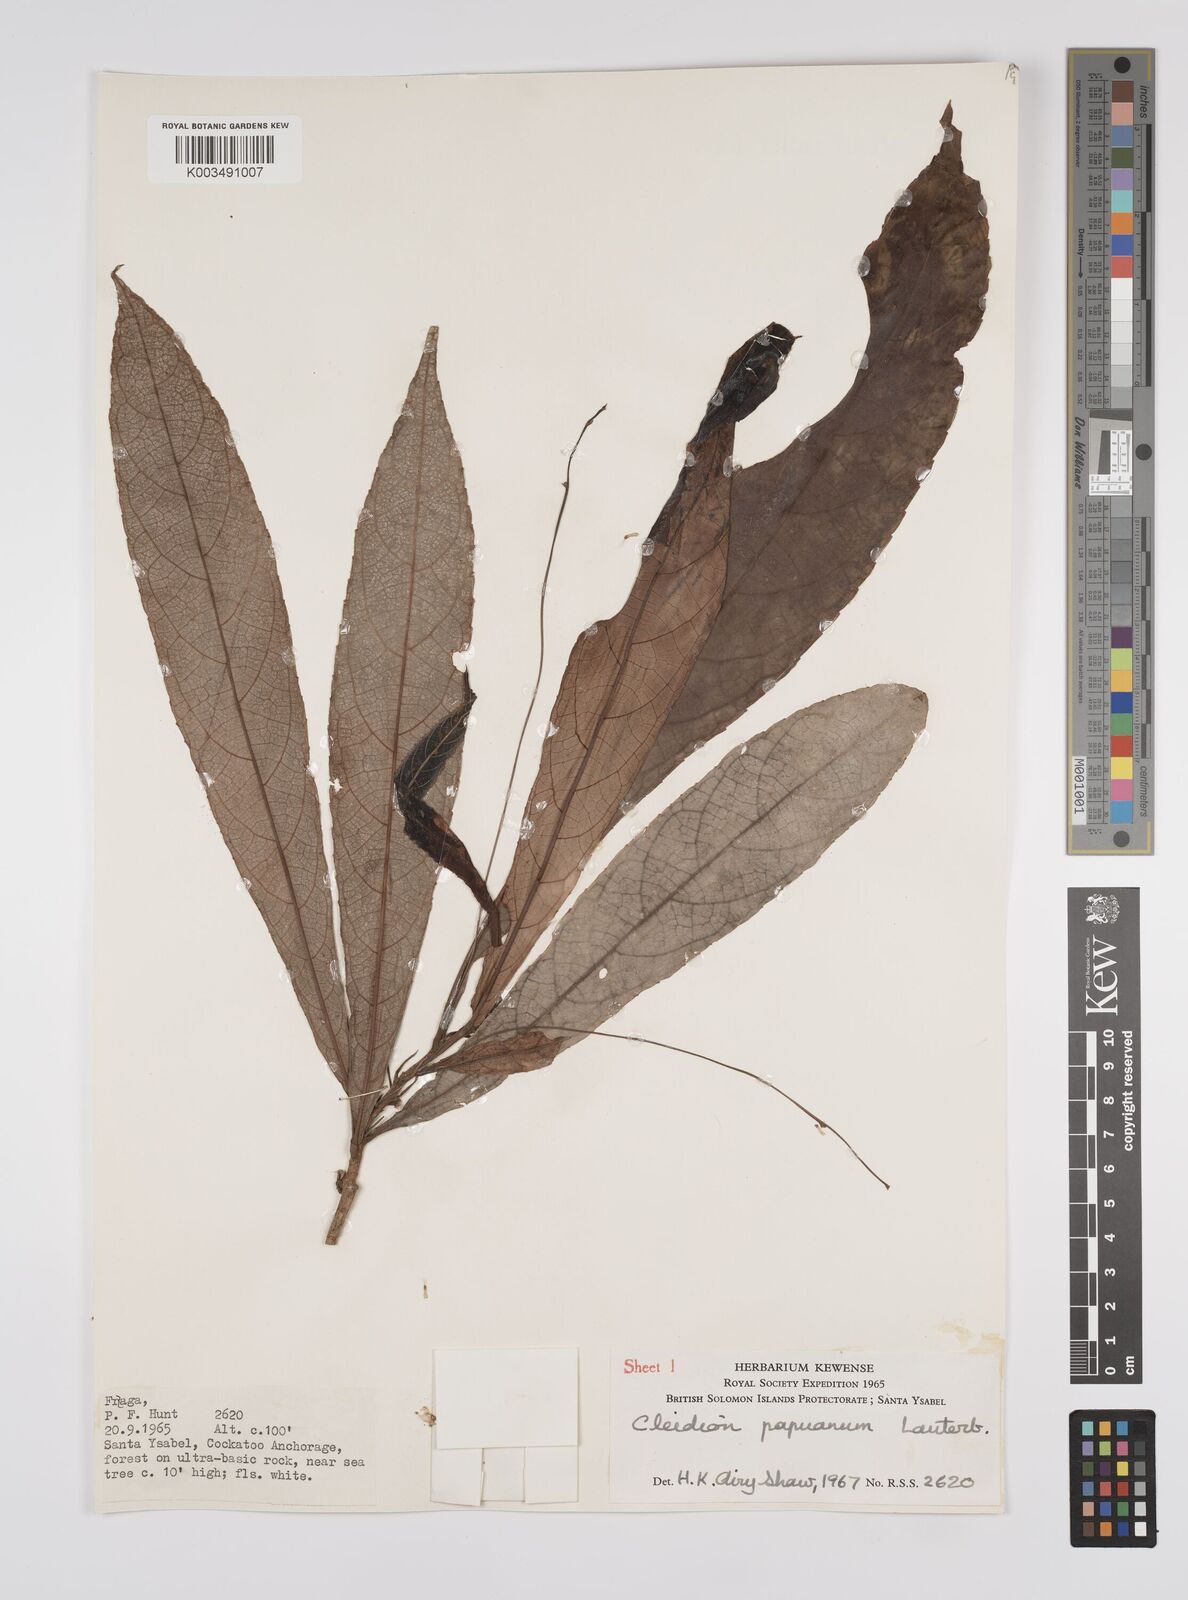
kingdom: Plantae
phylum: Tracheophyta
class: Magnoliopsida
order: Malpighiales
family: Euphorbiaceae
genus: Cleidion
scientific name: Cleidion papuanum
